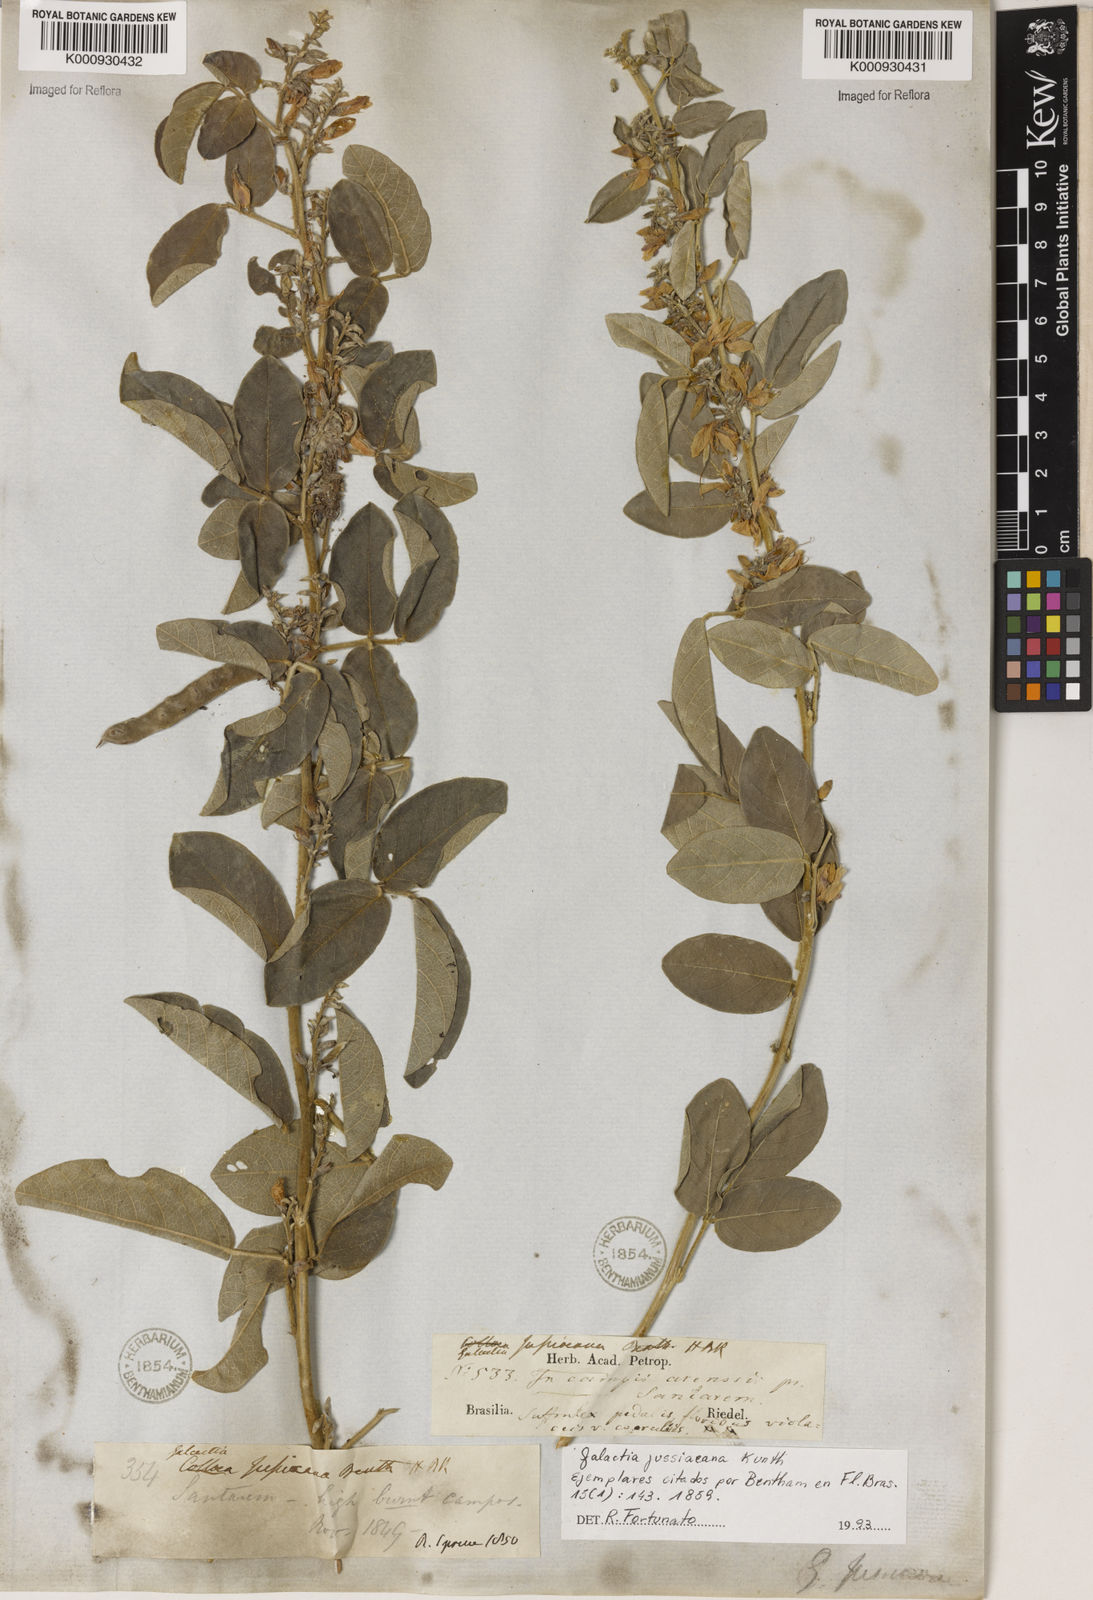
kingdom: Plantae
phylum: Tracheophyta
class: Magnoliopsida
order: Fabales
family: Fabaceae
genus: Galactia
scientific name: Galactia jussiaeana
